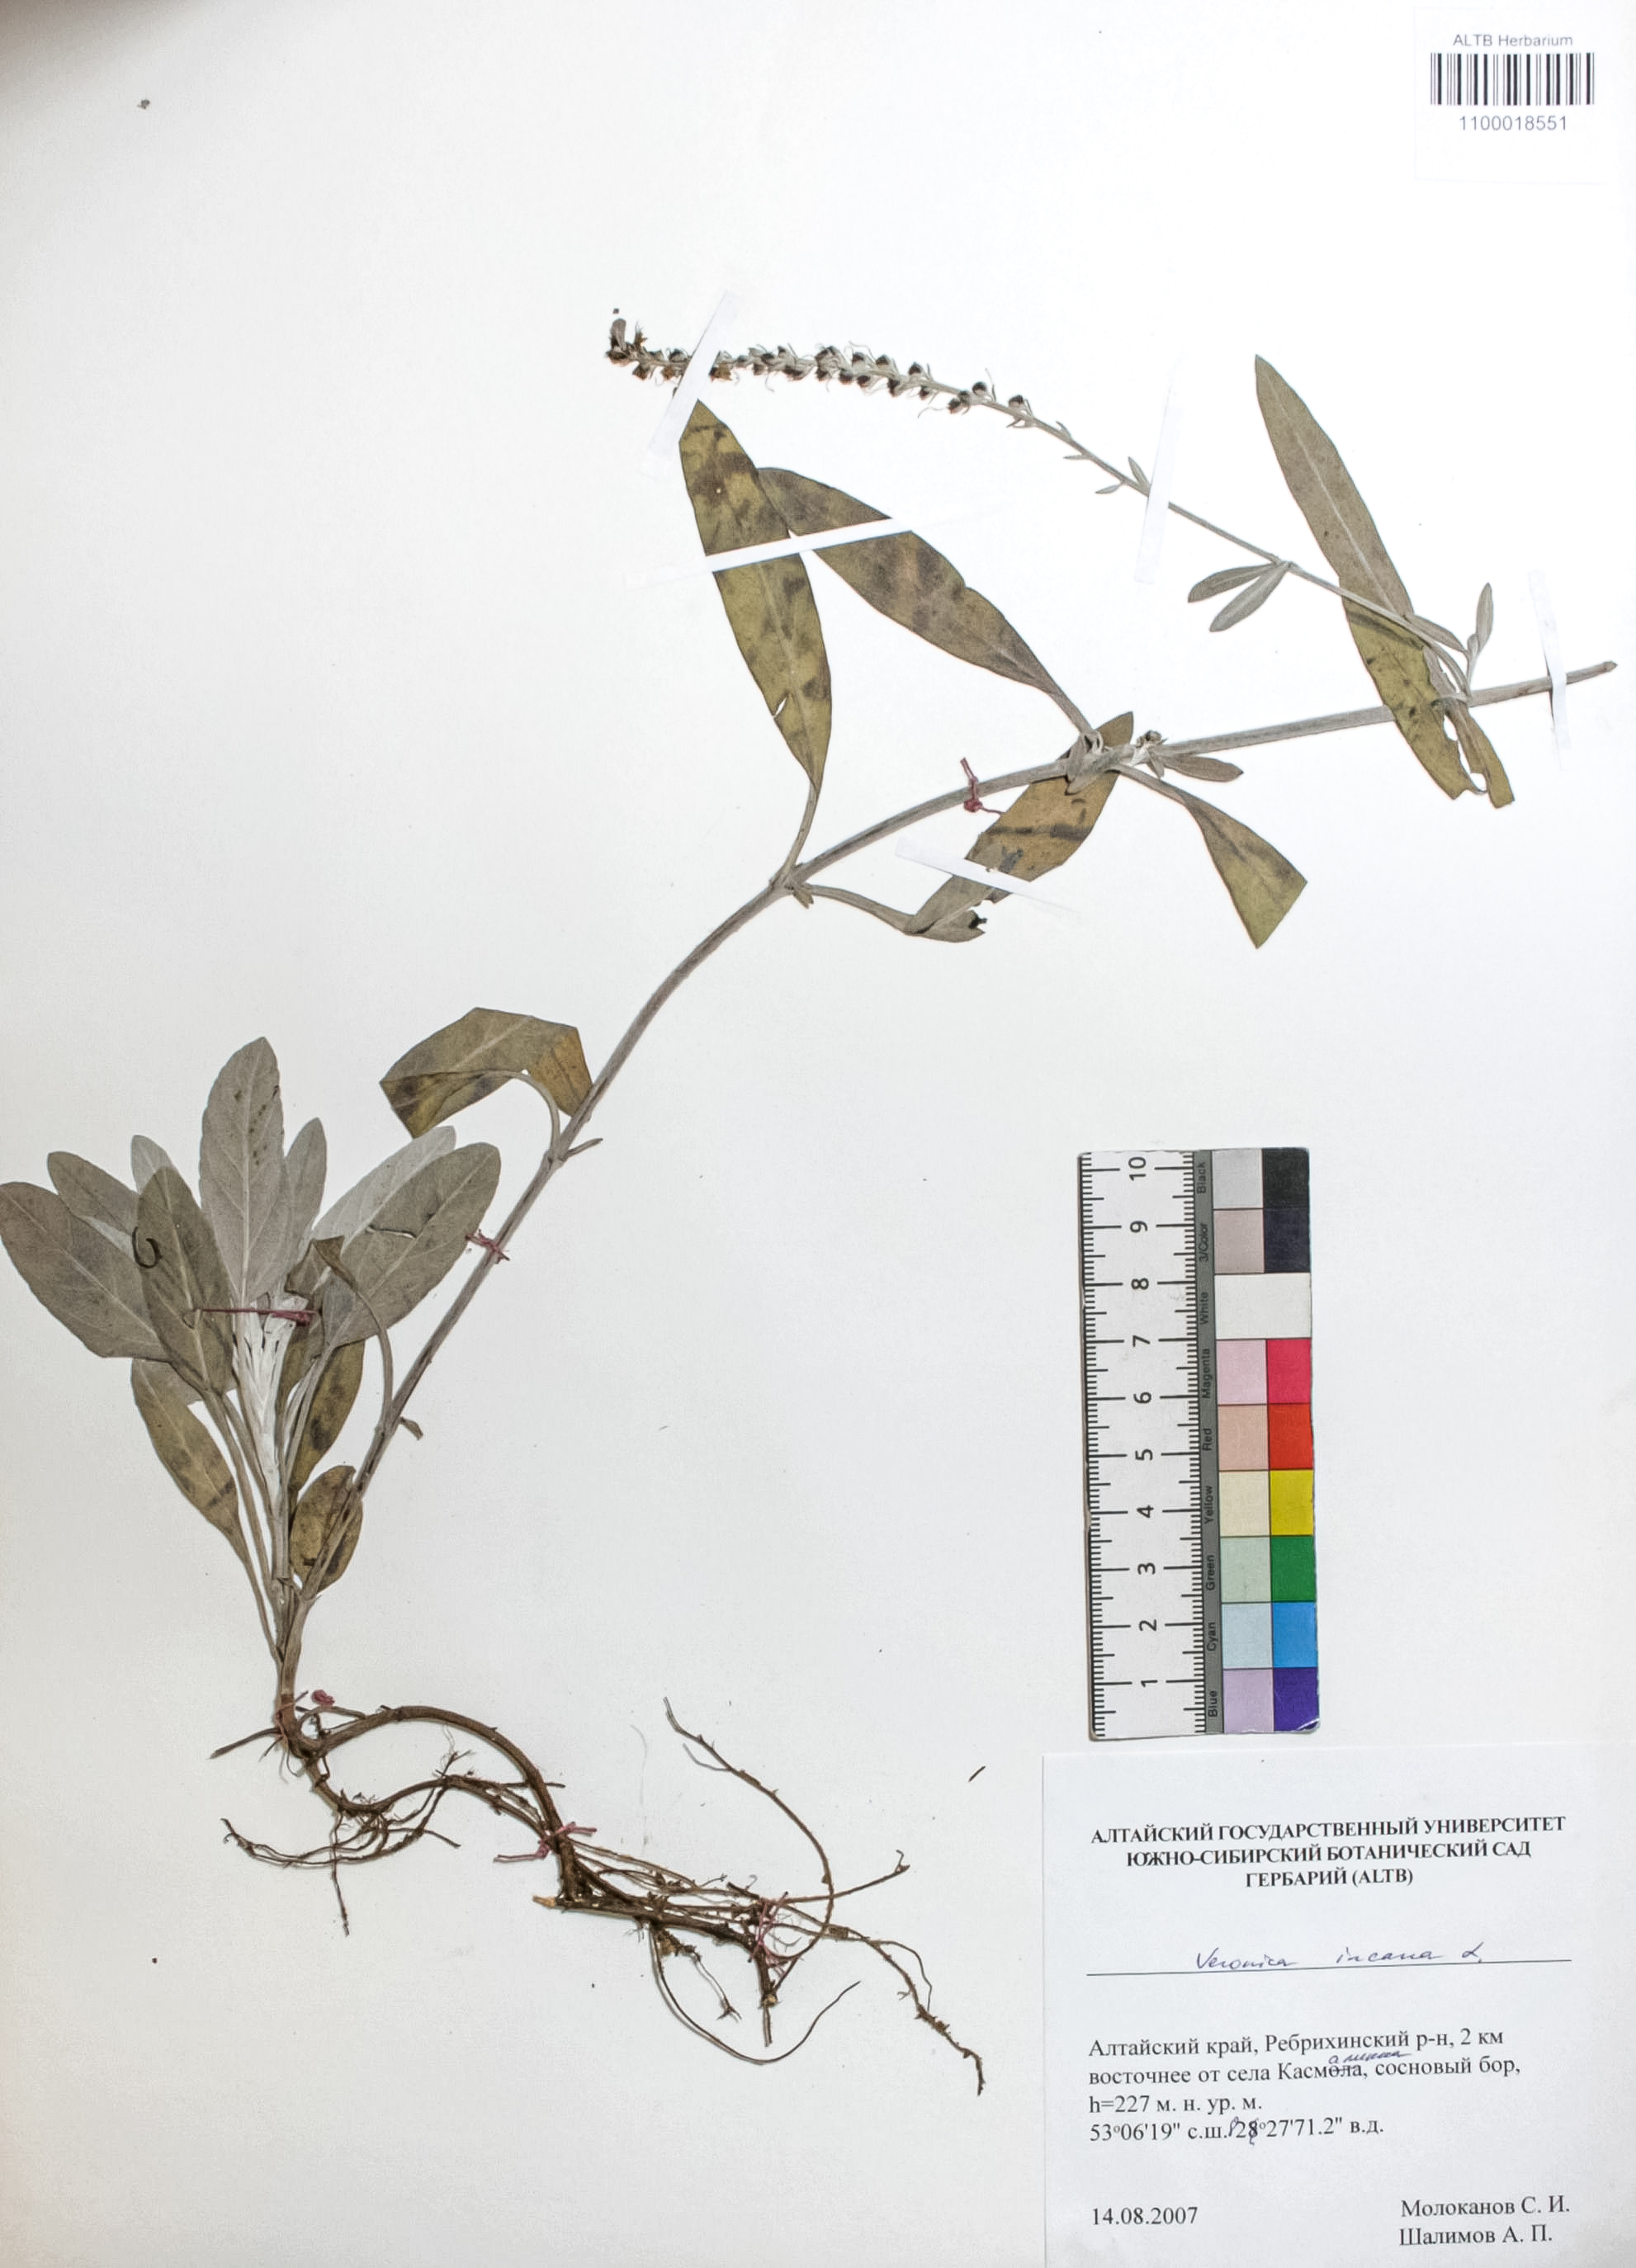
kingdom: Plantae
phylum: Tracheophyta
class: Magnoliopsida
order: Lamiales
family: Plantaginaceae
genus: Veronica
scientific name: Veronica incana
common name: Silver speedwell
